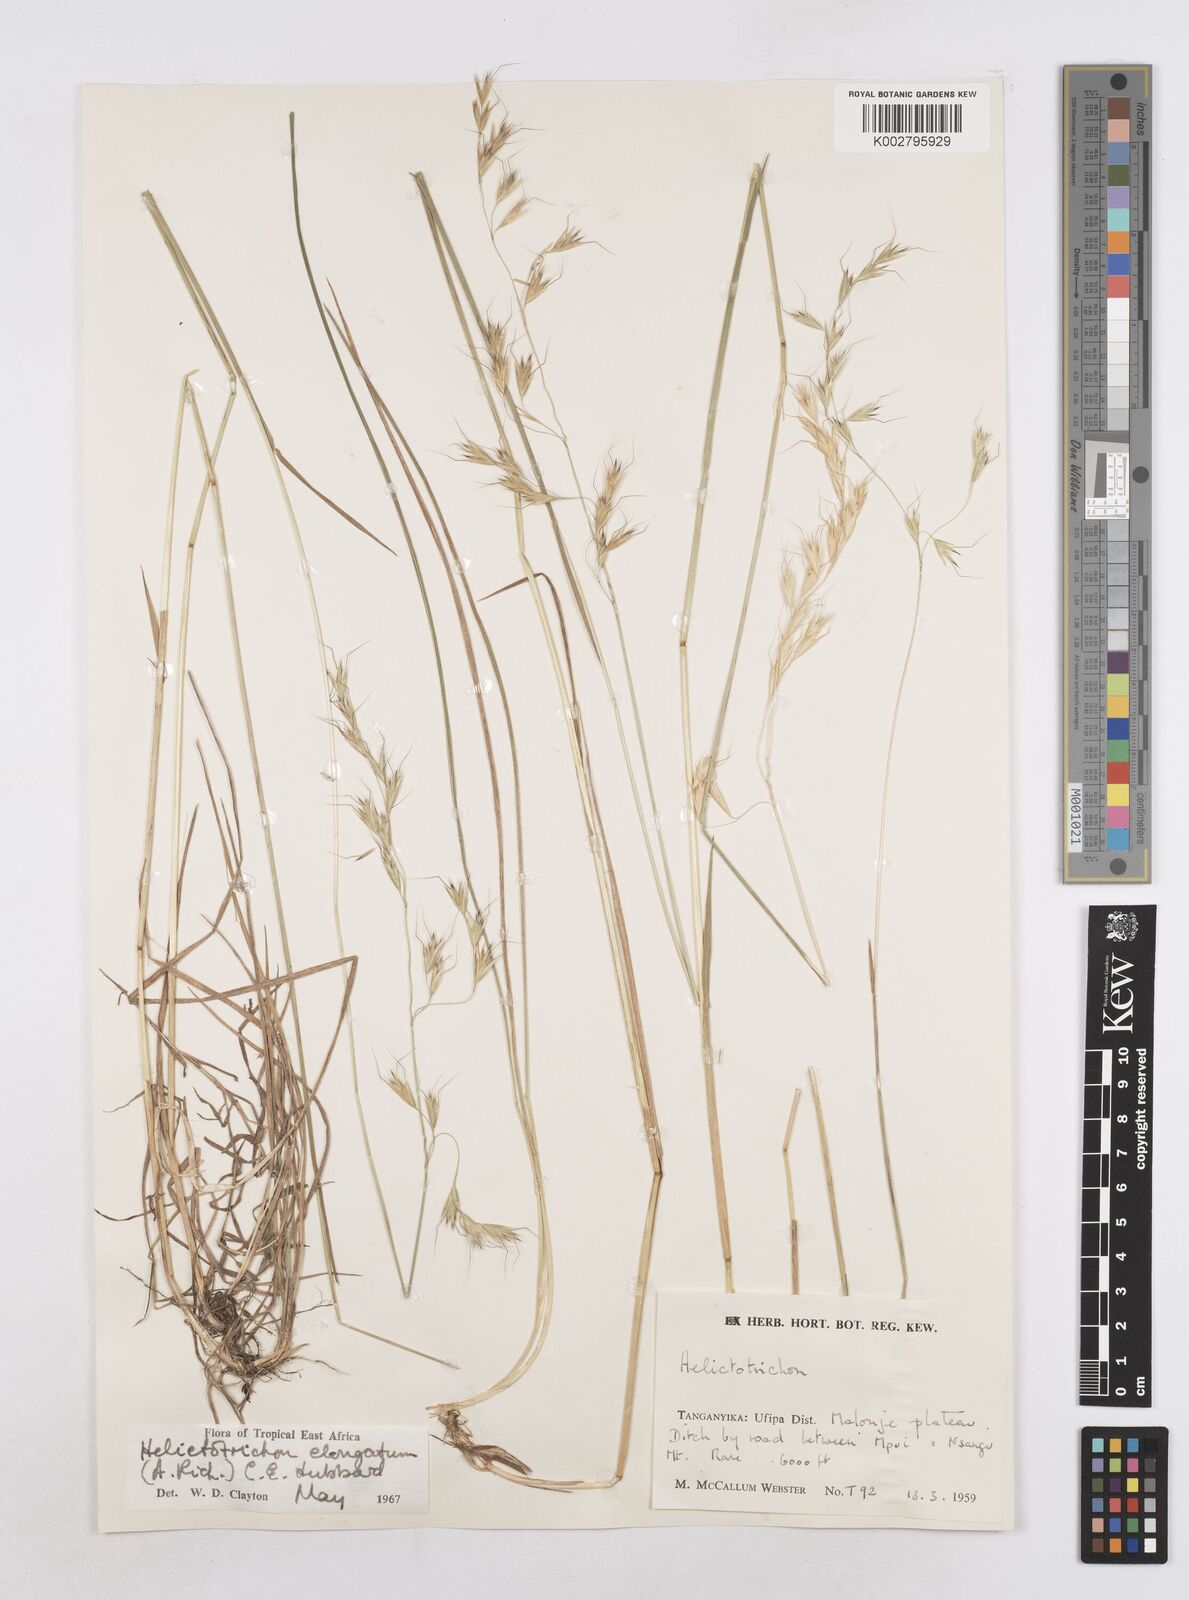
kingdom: Plantae
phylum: Tracheophyta
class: Liliopsida
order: Poales
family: Poaceae
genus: Trisetopsis
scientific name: Trisetopsis elongata
